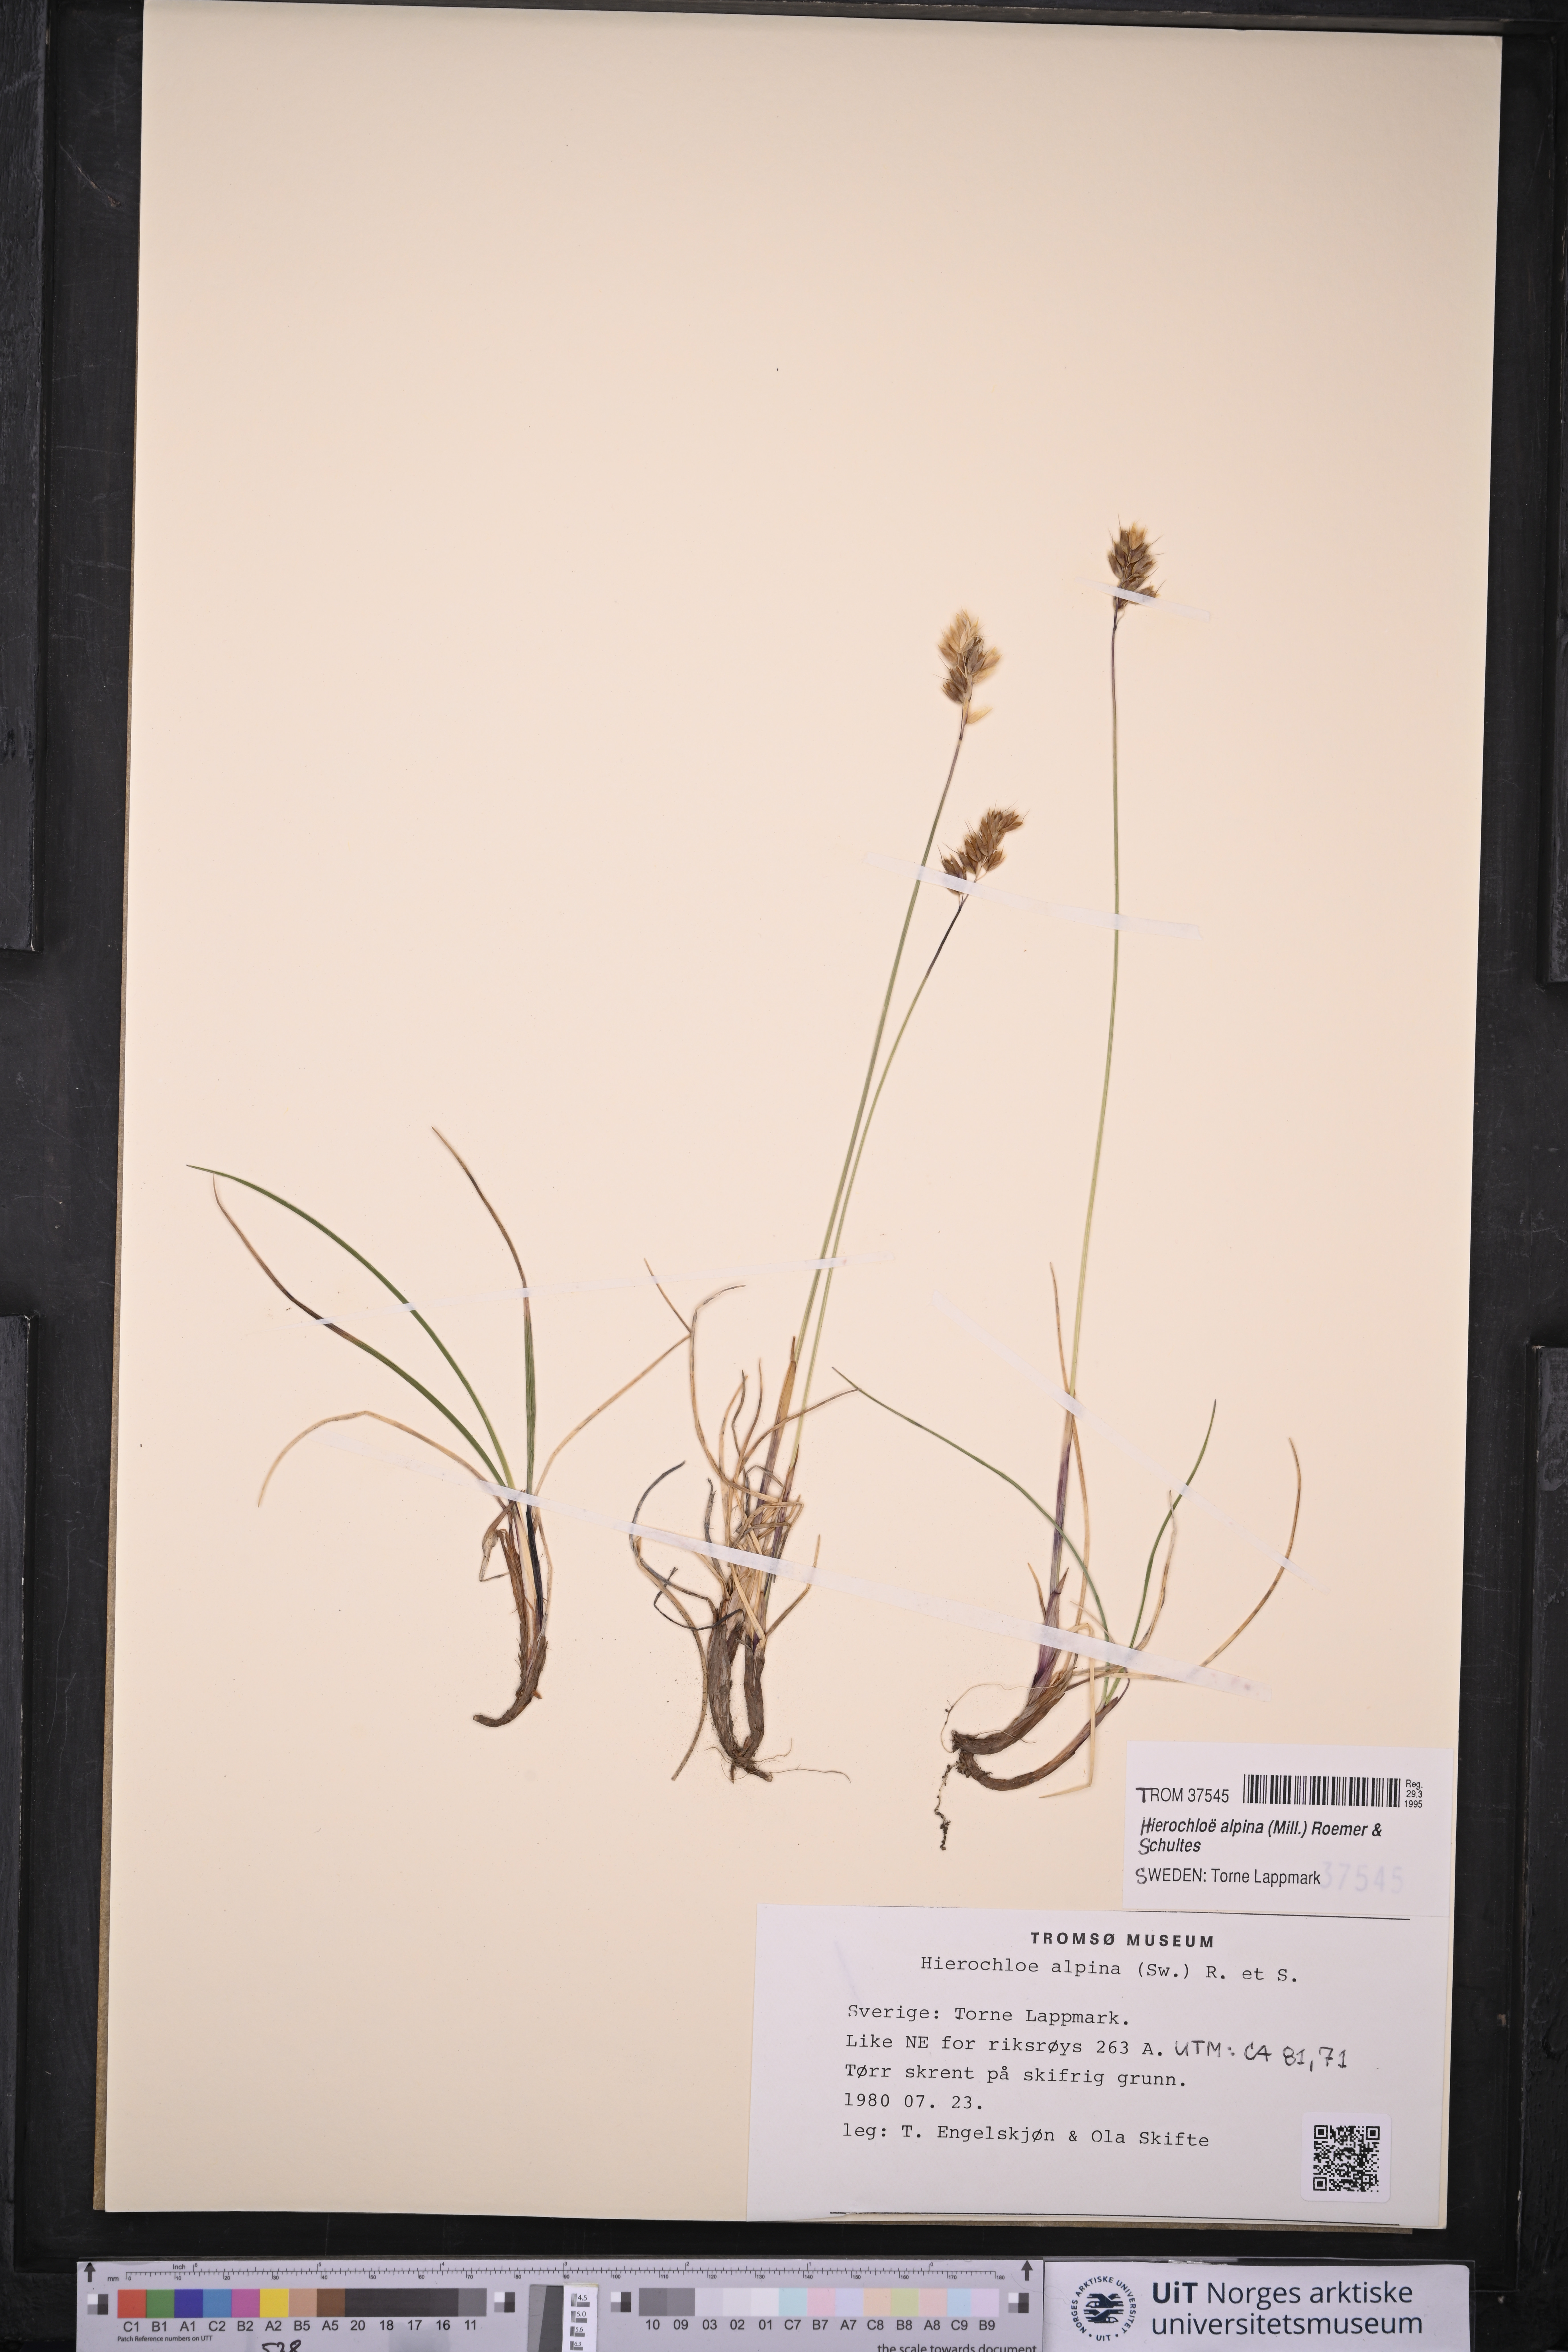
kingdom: Plantae
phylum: Tracheophyta
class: Liliopsida
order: Poales
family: Poaceae
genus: Anthoxanthum
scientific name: Anthoxanthum monticola
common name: Alpine sweetgrass
